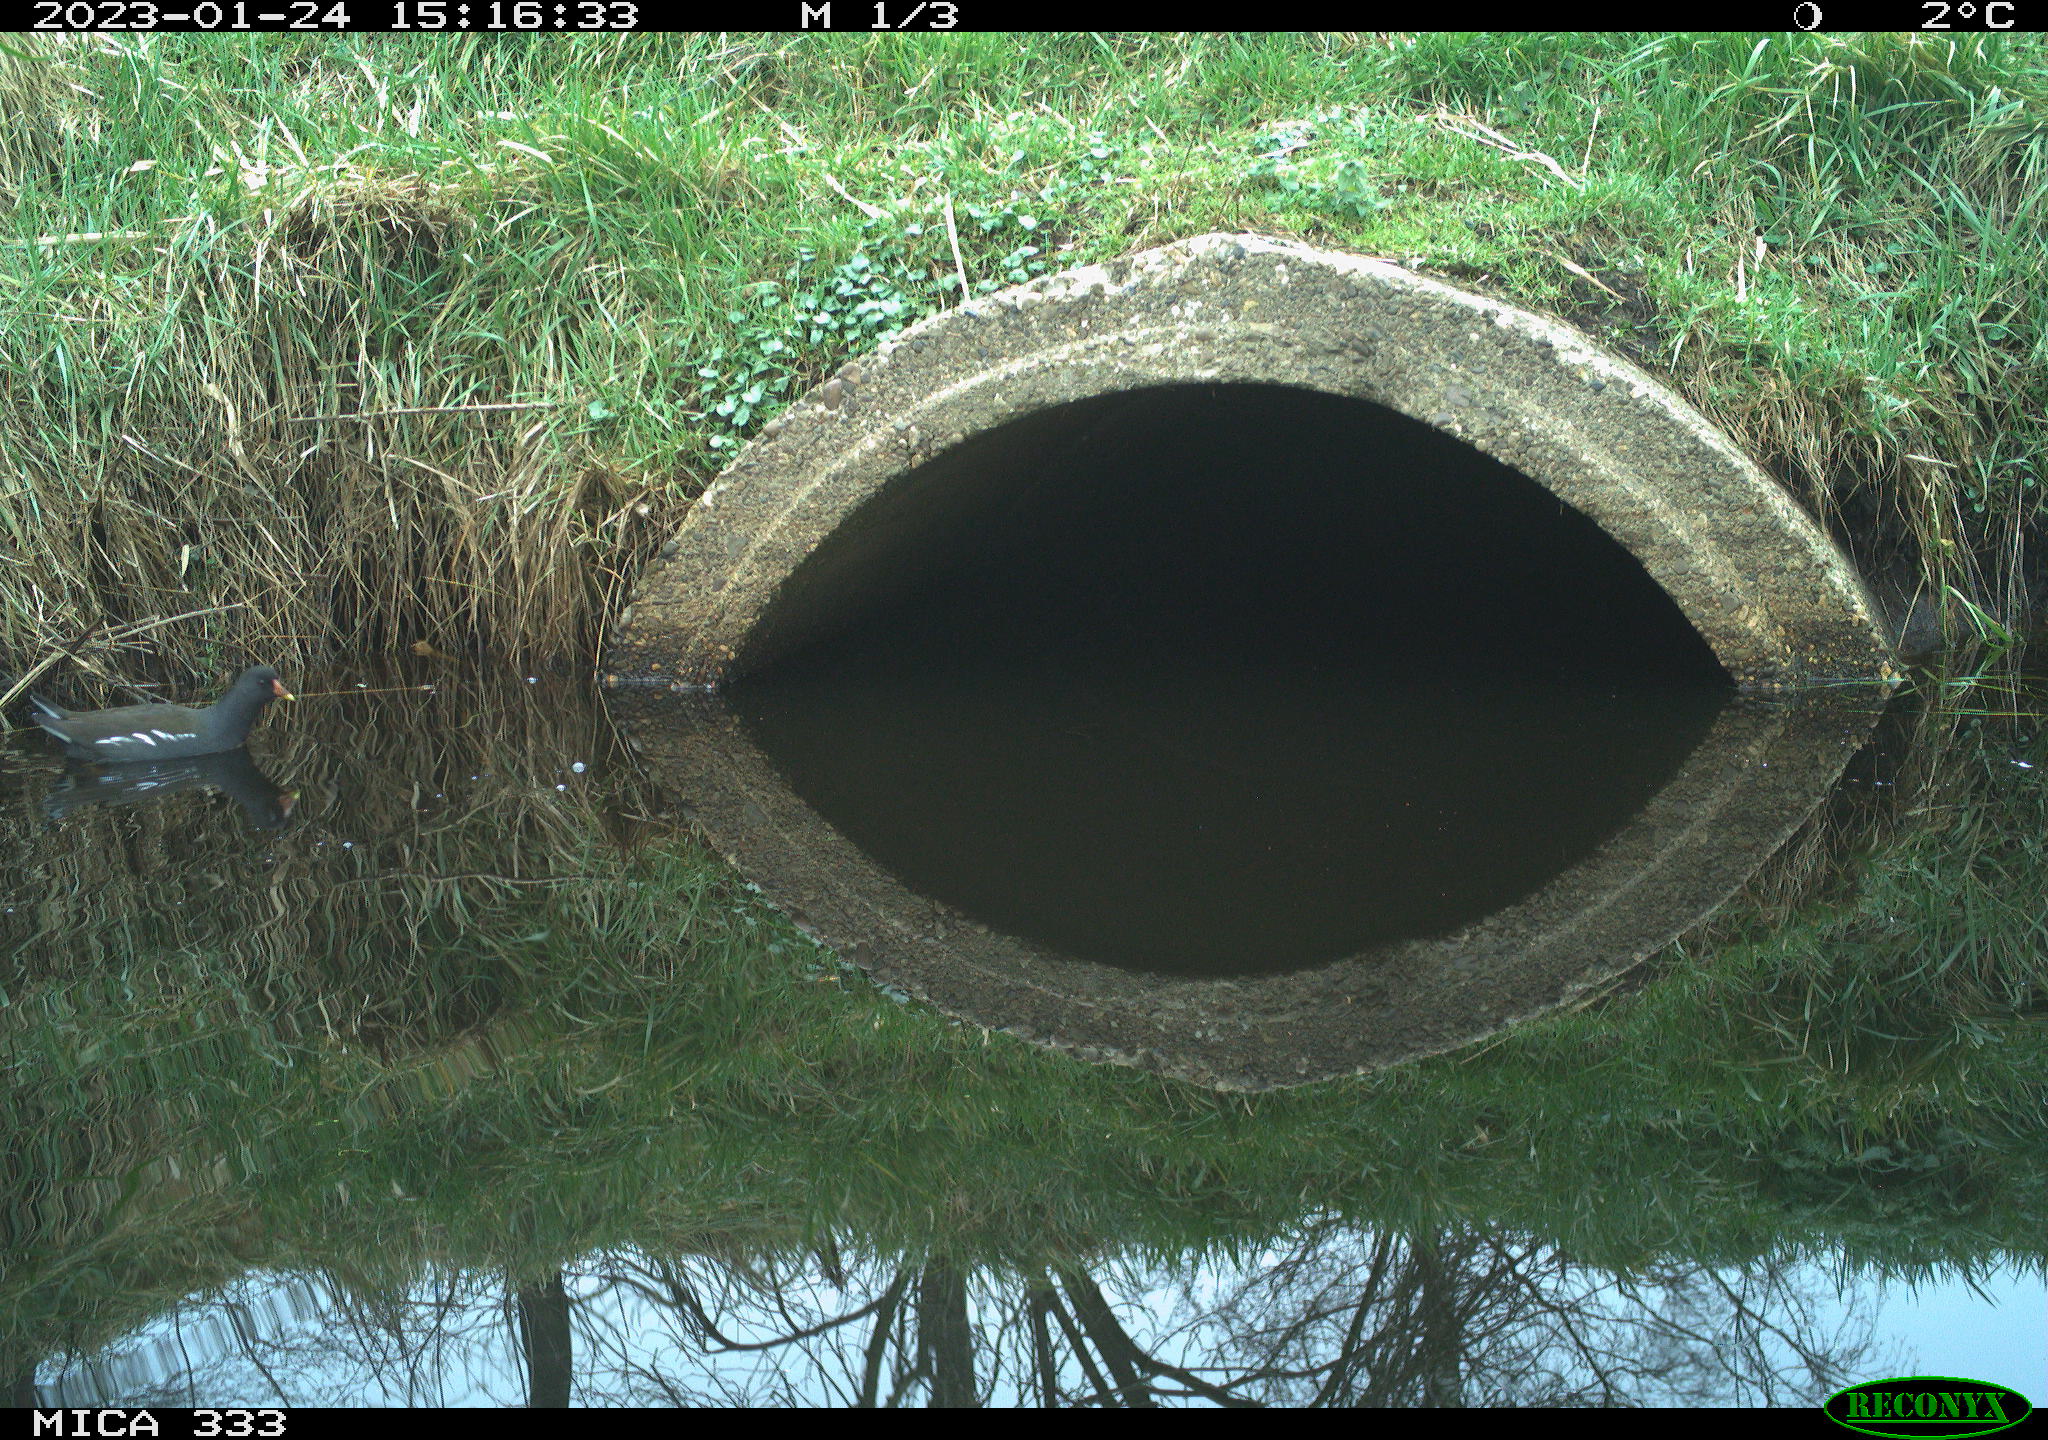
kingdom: Animalia
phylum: Chordata
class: Aves
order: Gruiformes
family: Rallidae
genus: Gallinula
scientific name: Gallinula chloropus
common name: Common moorhen
